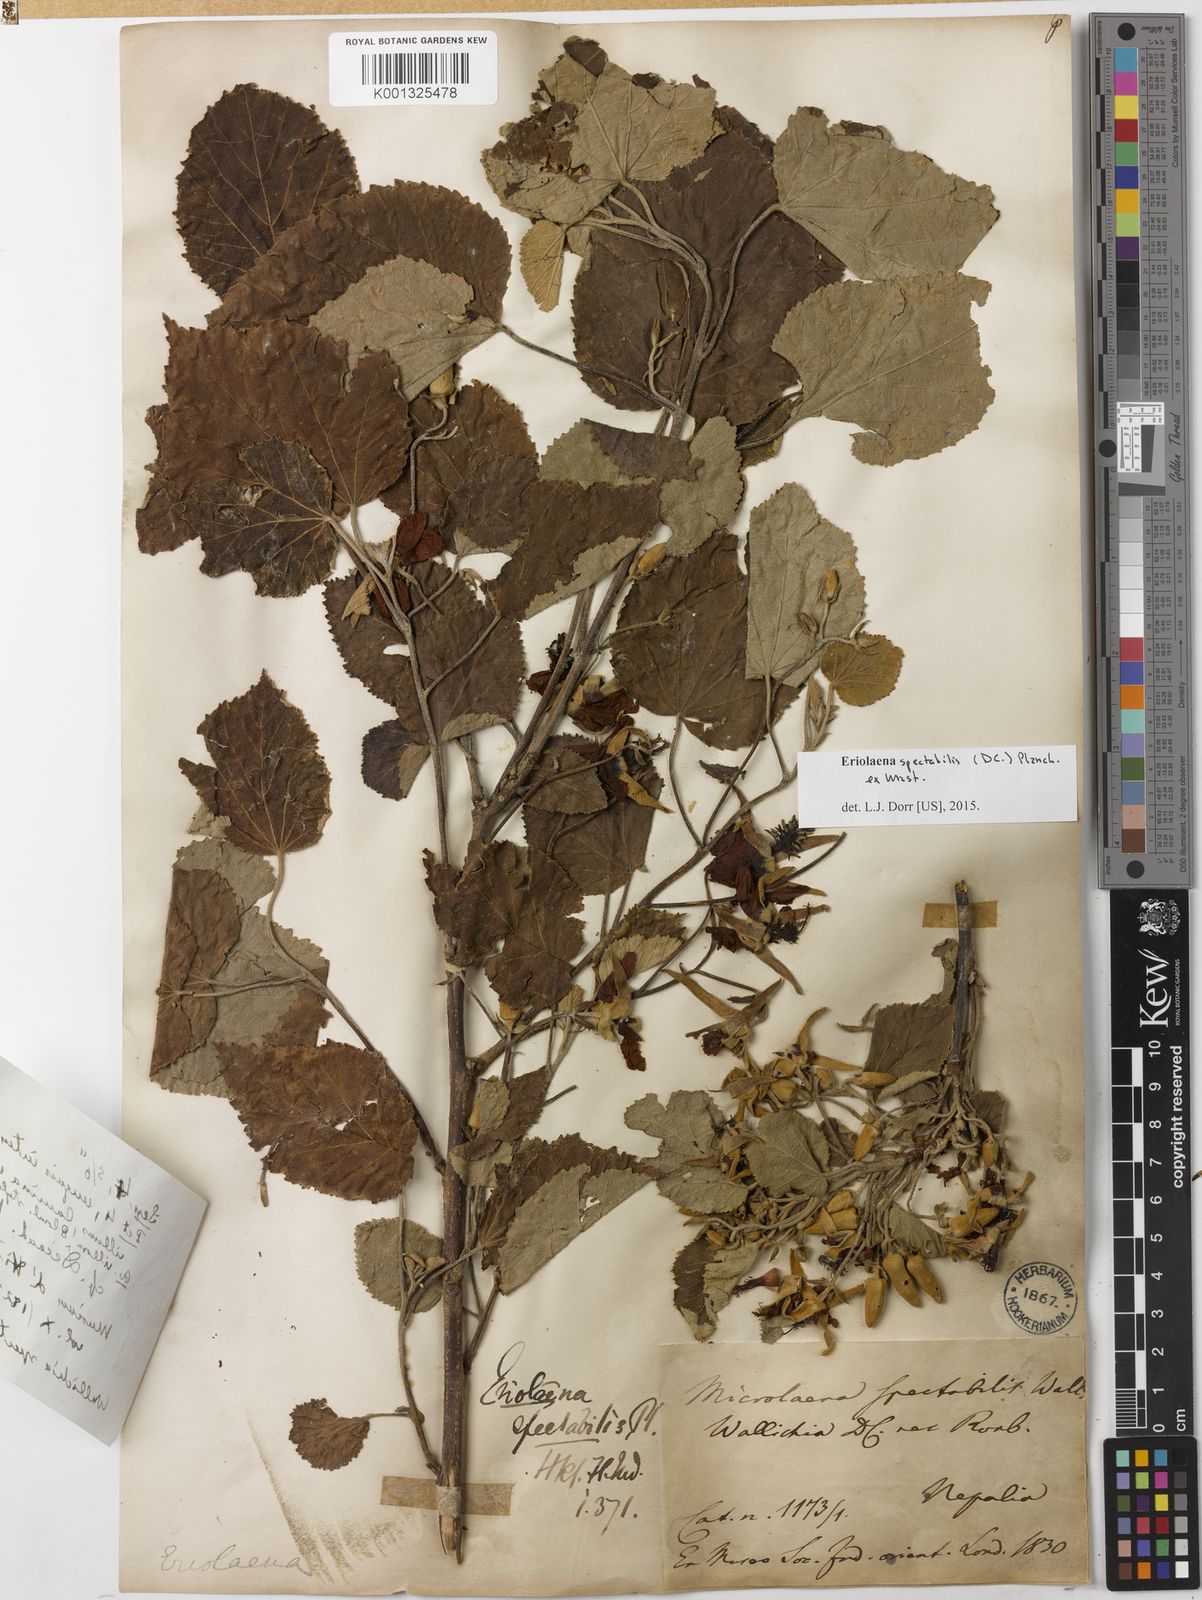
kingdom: Plantae
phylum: Tracheophyta
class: Magnoliopsida
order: Malvales
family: Malvaceae
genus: Eriolaena
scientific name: Eriolaena spectabilis
